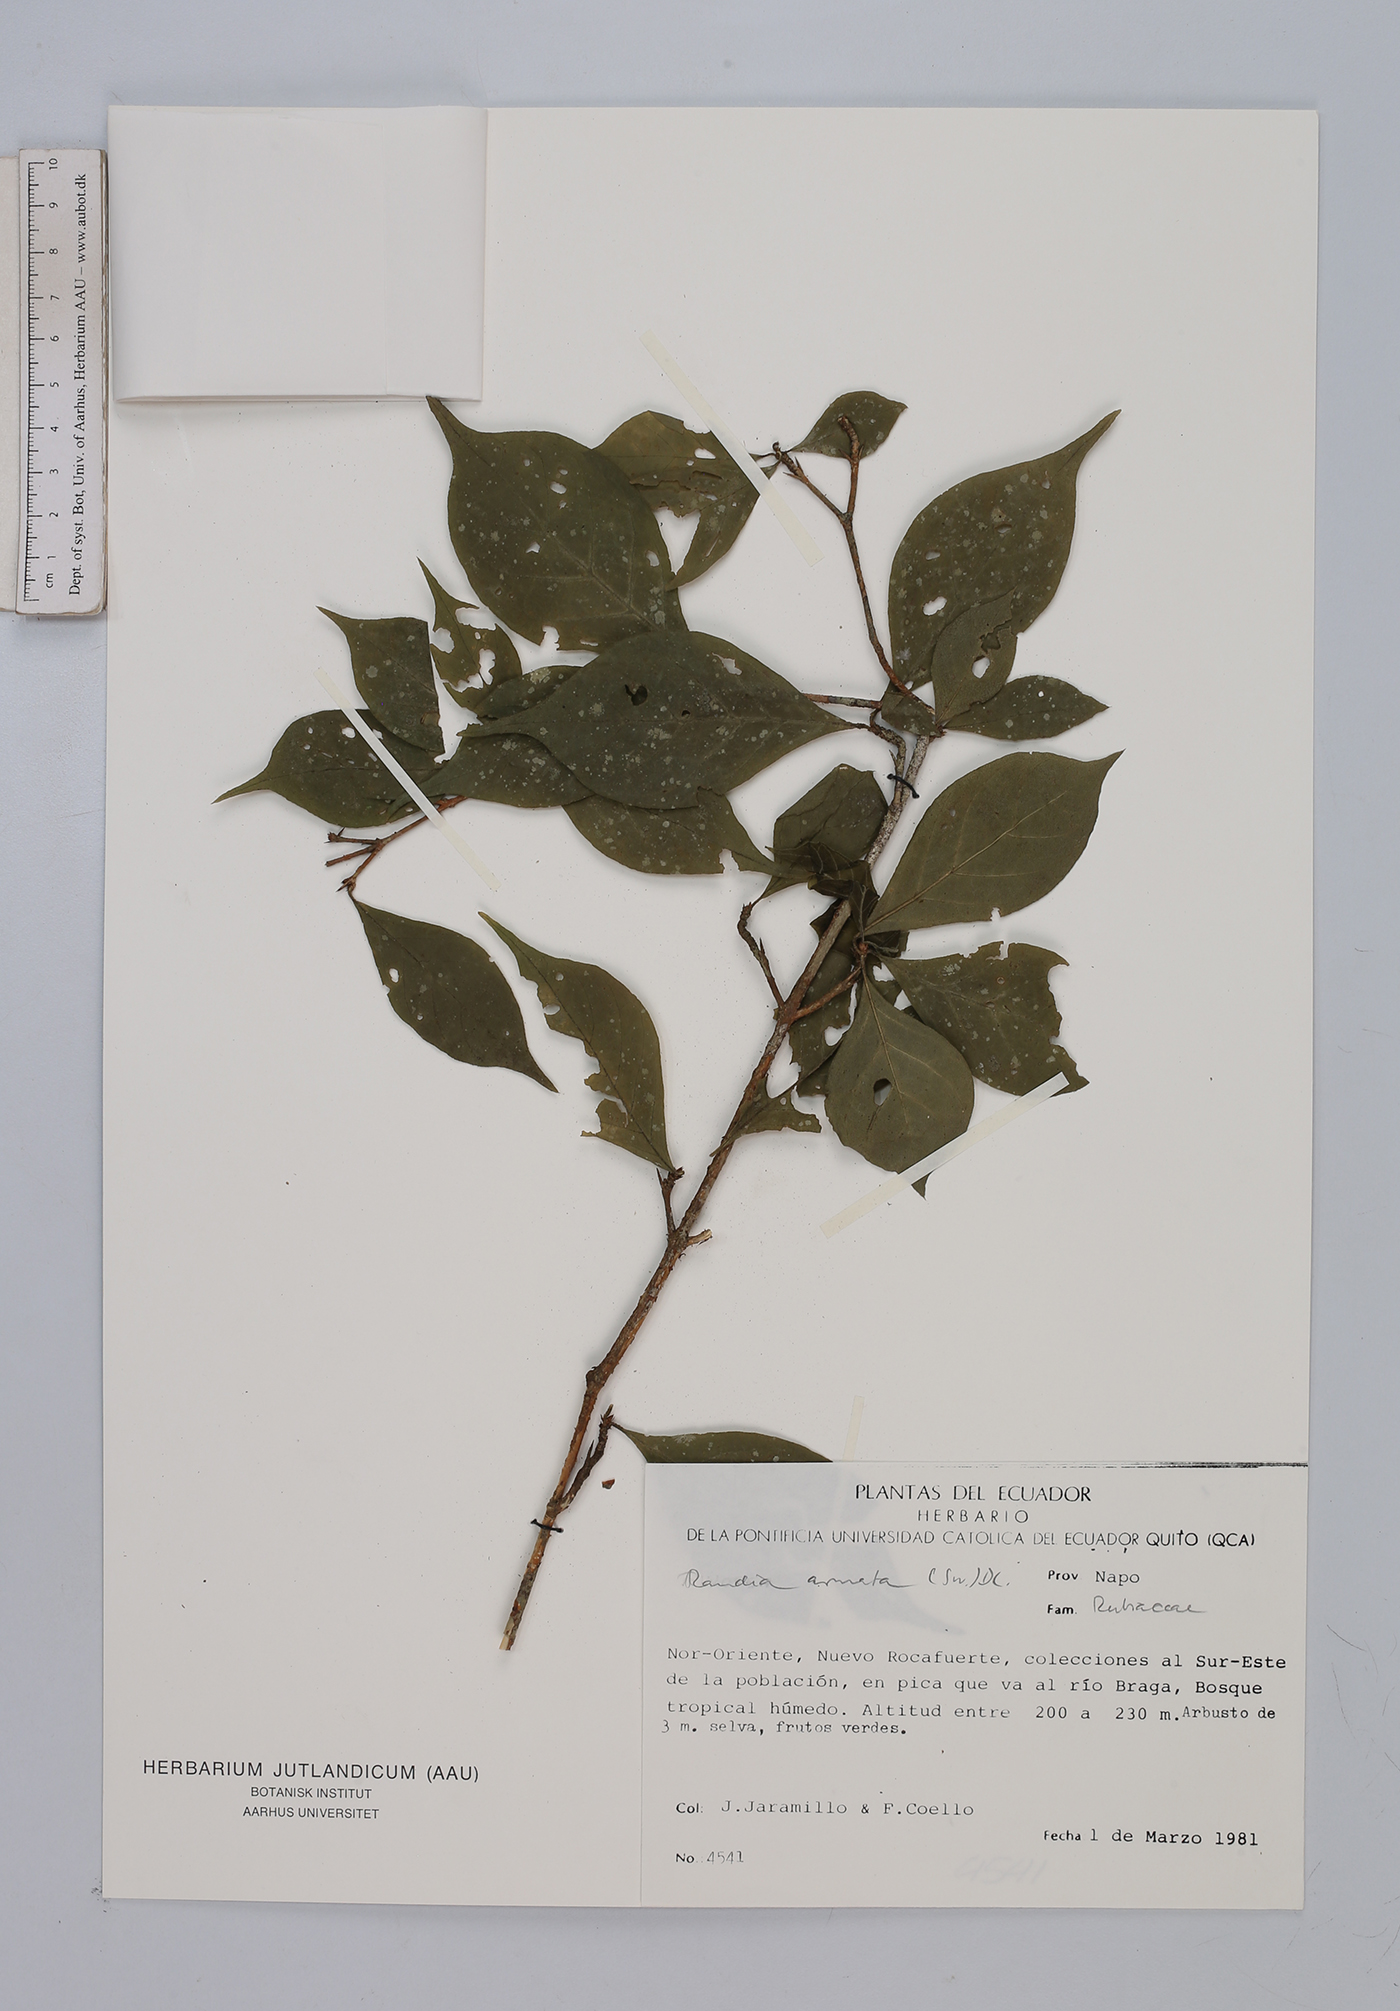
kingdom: Plantae
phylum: Tracheophyta
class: Magnoliopsida
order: Gentianales
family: Rubiaceae
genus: Randia
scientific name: Randia armata
